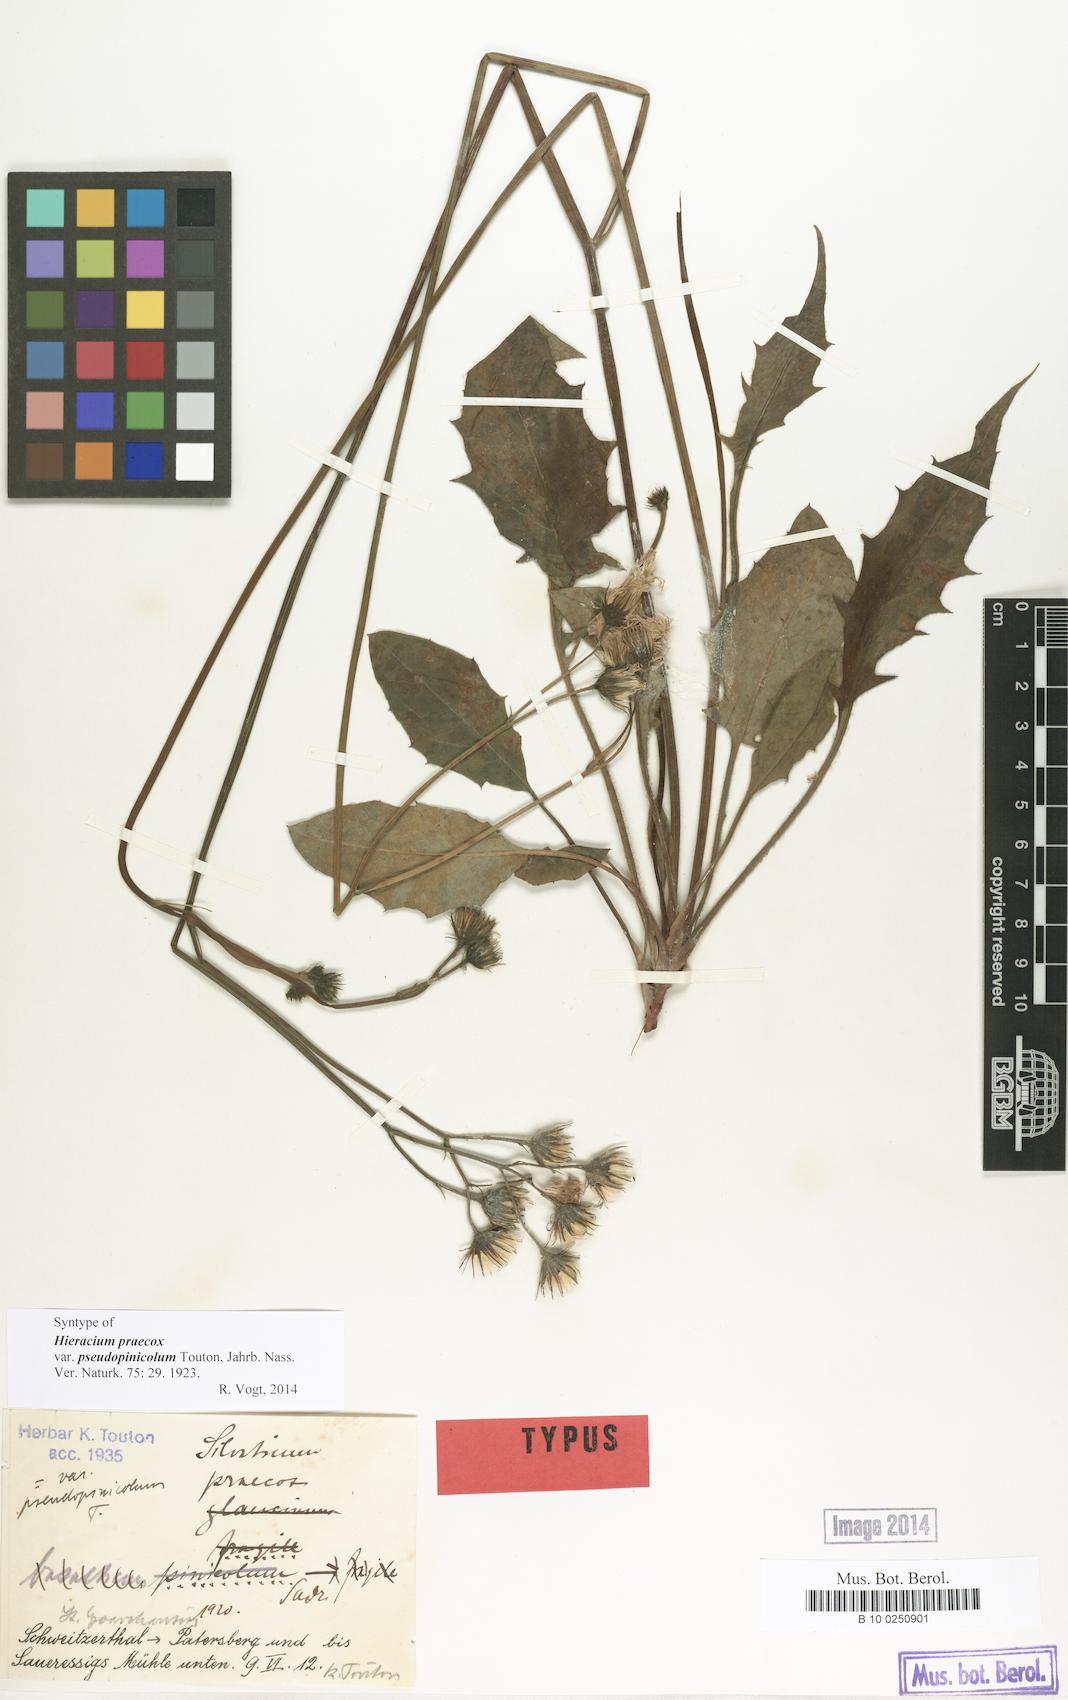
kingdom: Plantae
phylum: Tracheophyta
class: Magnoliopsida
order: Asterales
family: Asteraceae
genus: Hieracium
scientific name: Hieracium praecox
